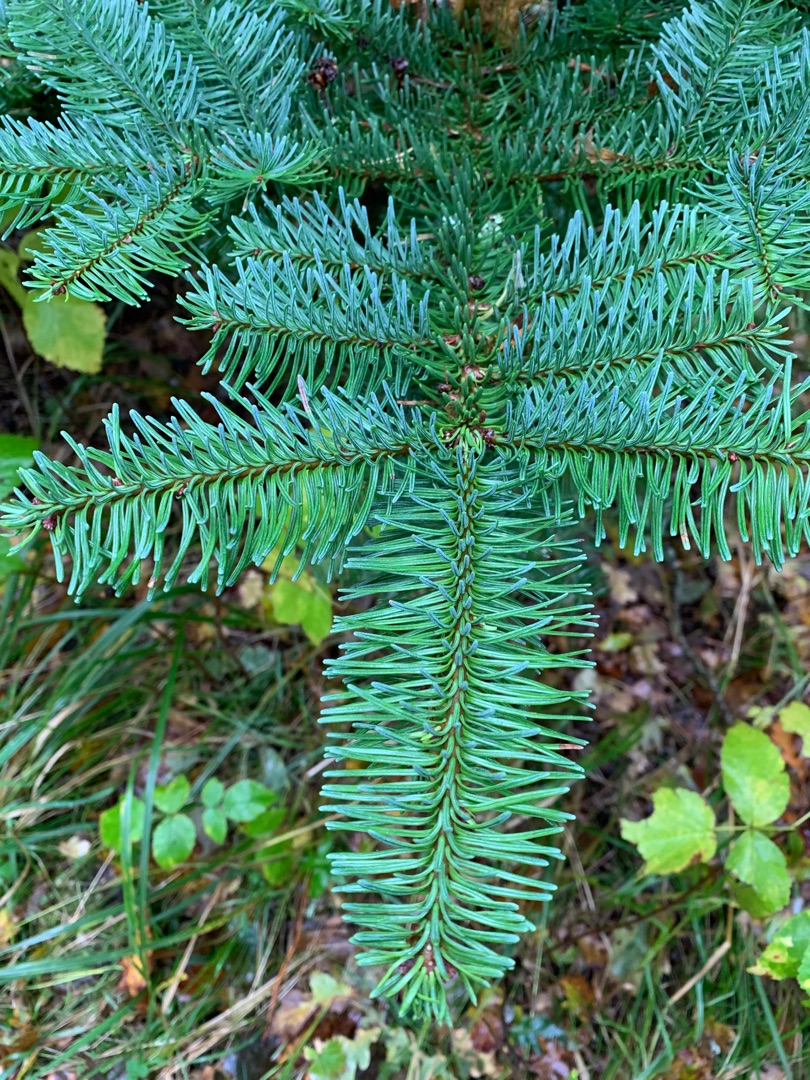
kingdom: Plantae
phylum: Tracheophyta
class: Pinopsida
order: Pinales
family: Pinaceae
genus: Abies
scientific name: Abies procera
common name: Sølvgran
